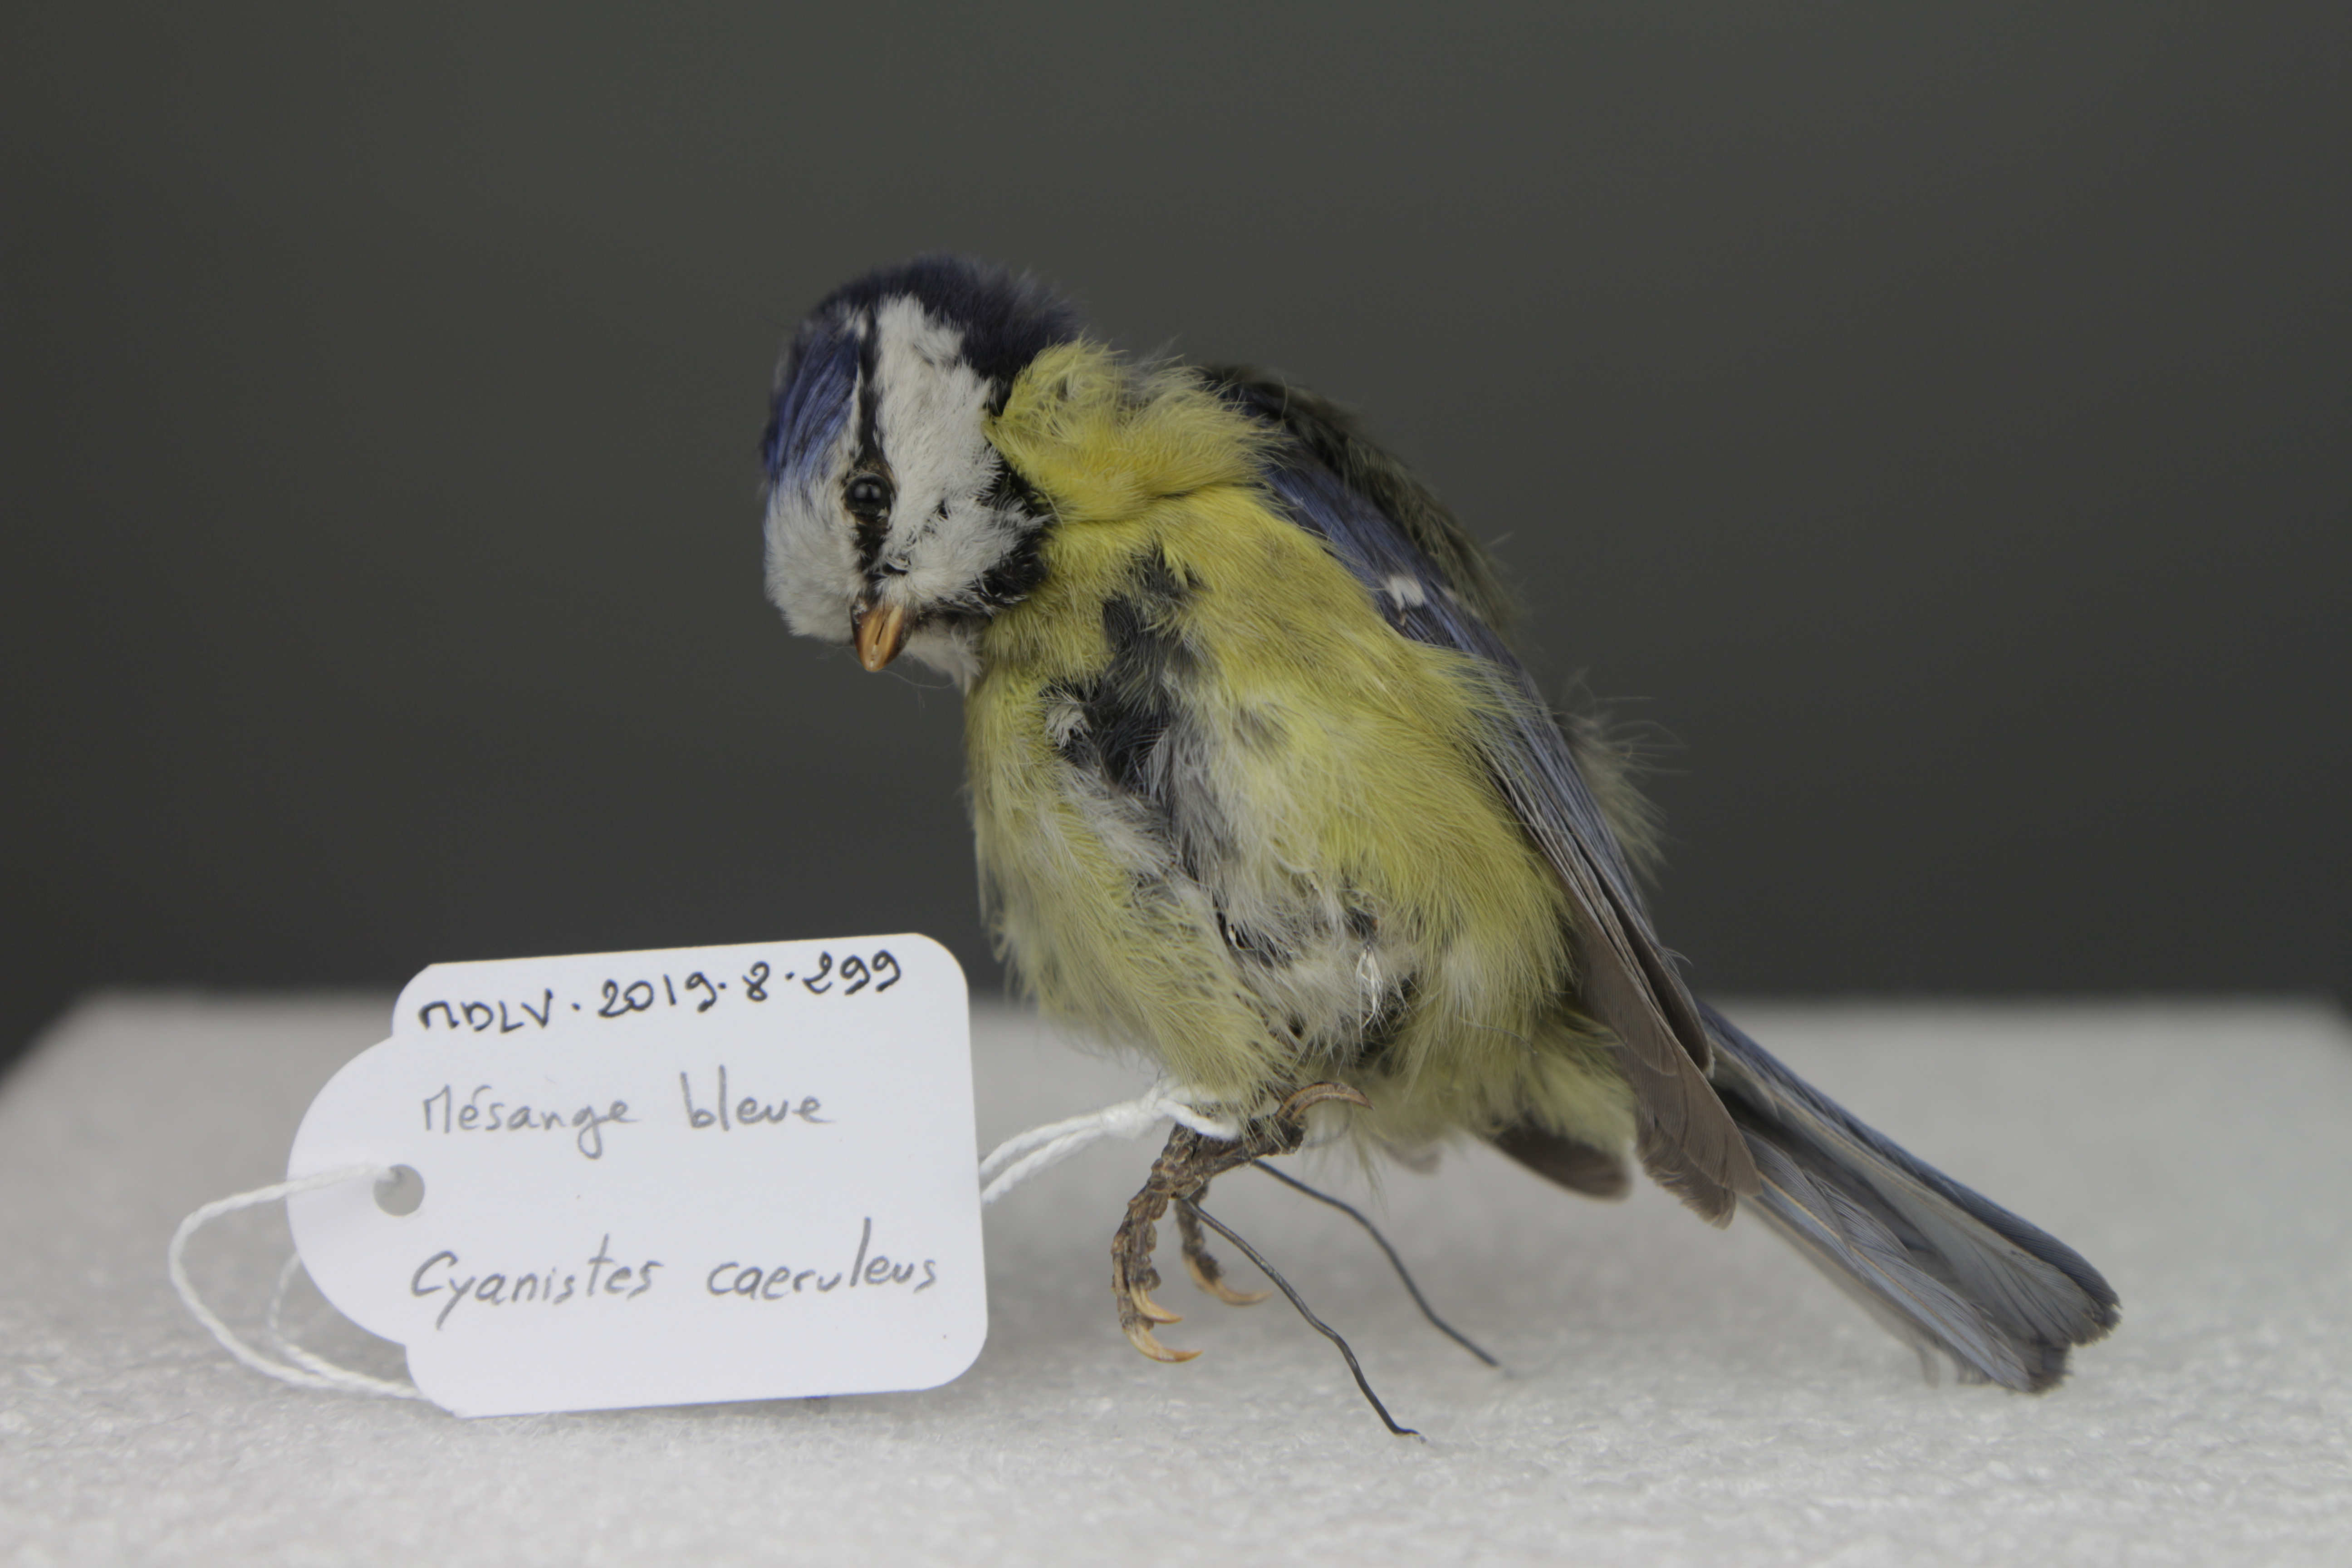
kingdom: Animalia
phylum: Chordata
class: Aves
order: Passeriformes
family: Paridae
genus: Cyanistes
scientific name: Cyanistes caeruleus
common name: Eurasian blue tit
